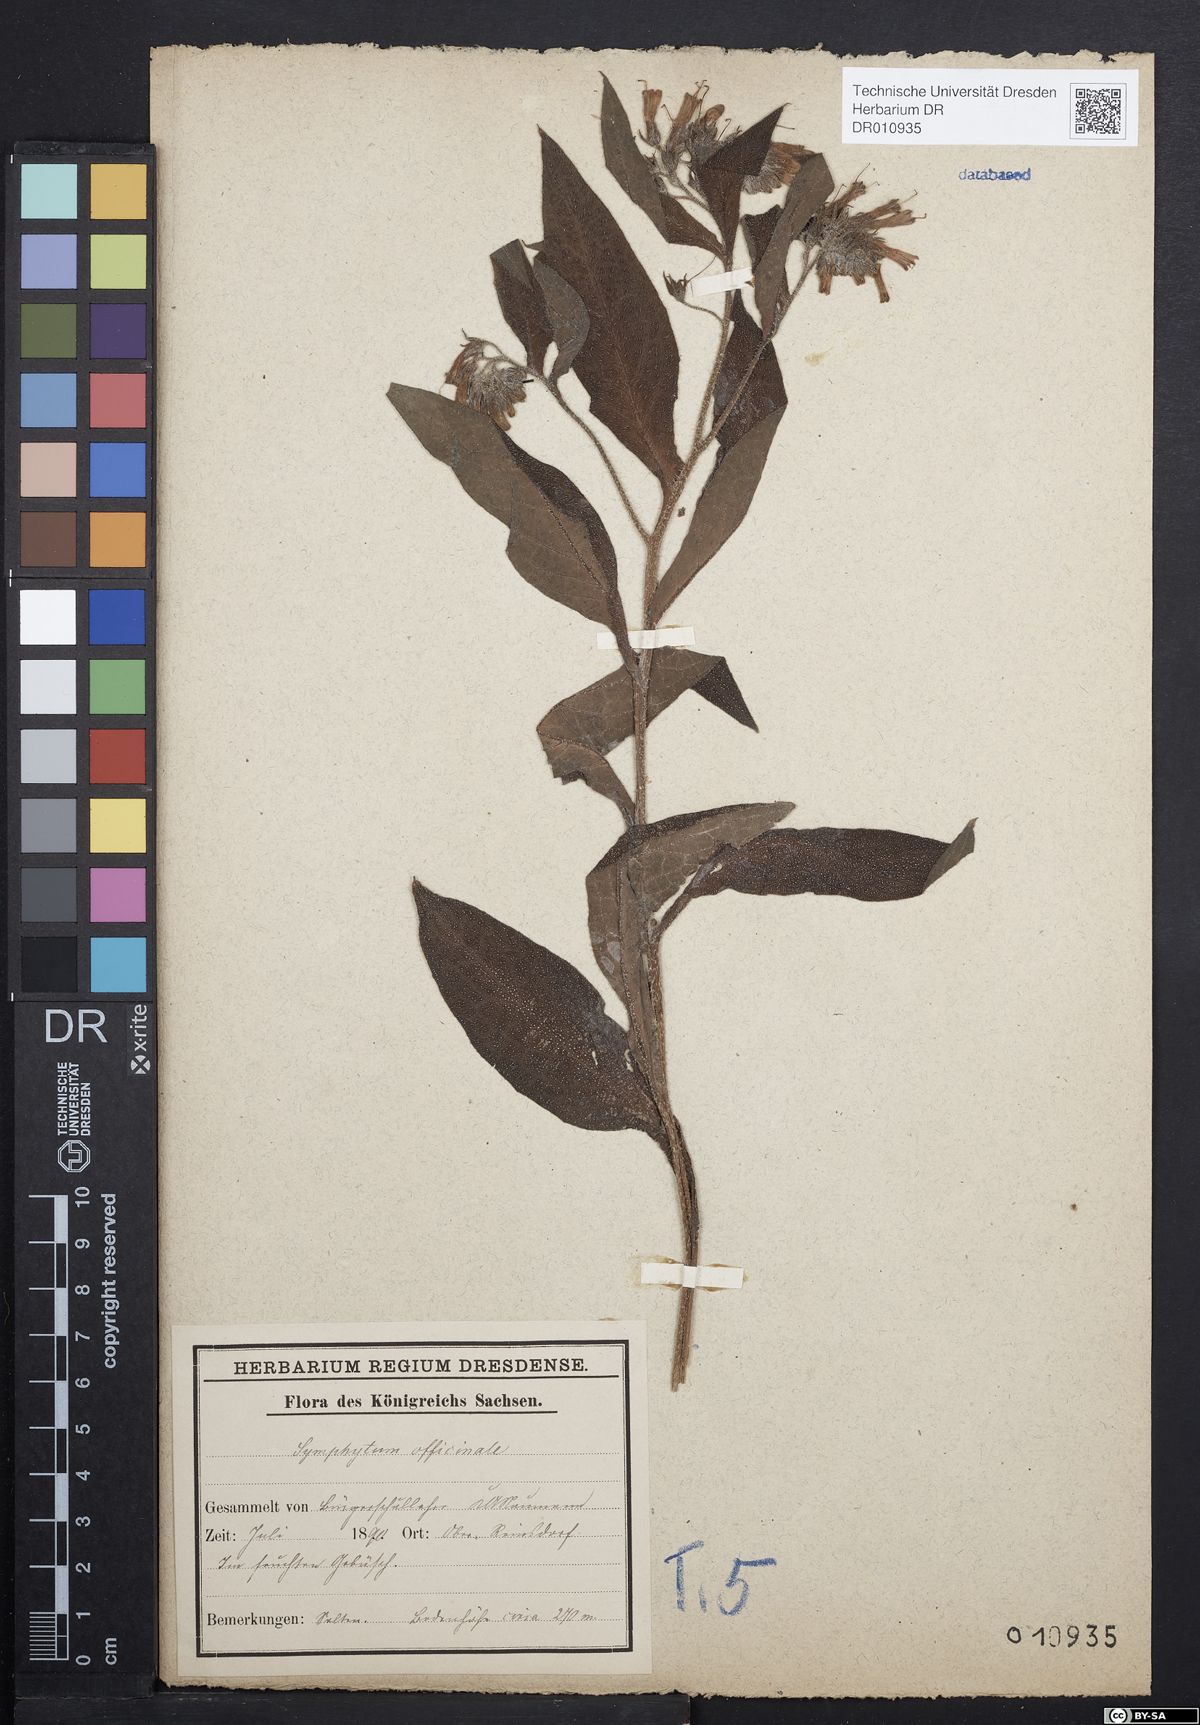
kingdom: Plantae
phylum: Tracheophyta
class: Magnoliopsida
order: Boraginales
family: Boraginaceae
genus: Symphytum
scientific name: Symphytum officinale
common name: Common comfrey
